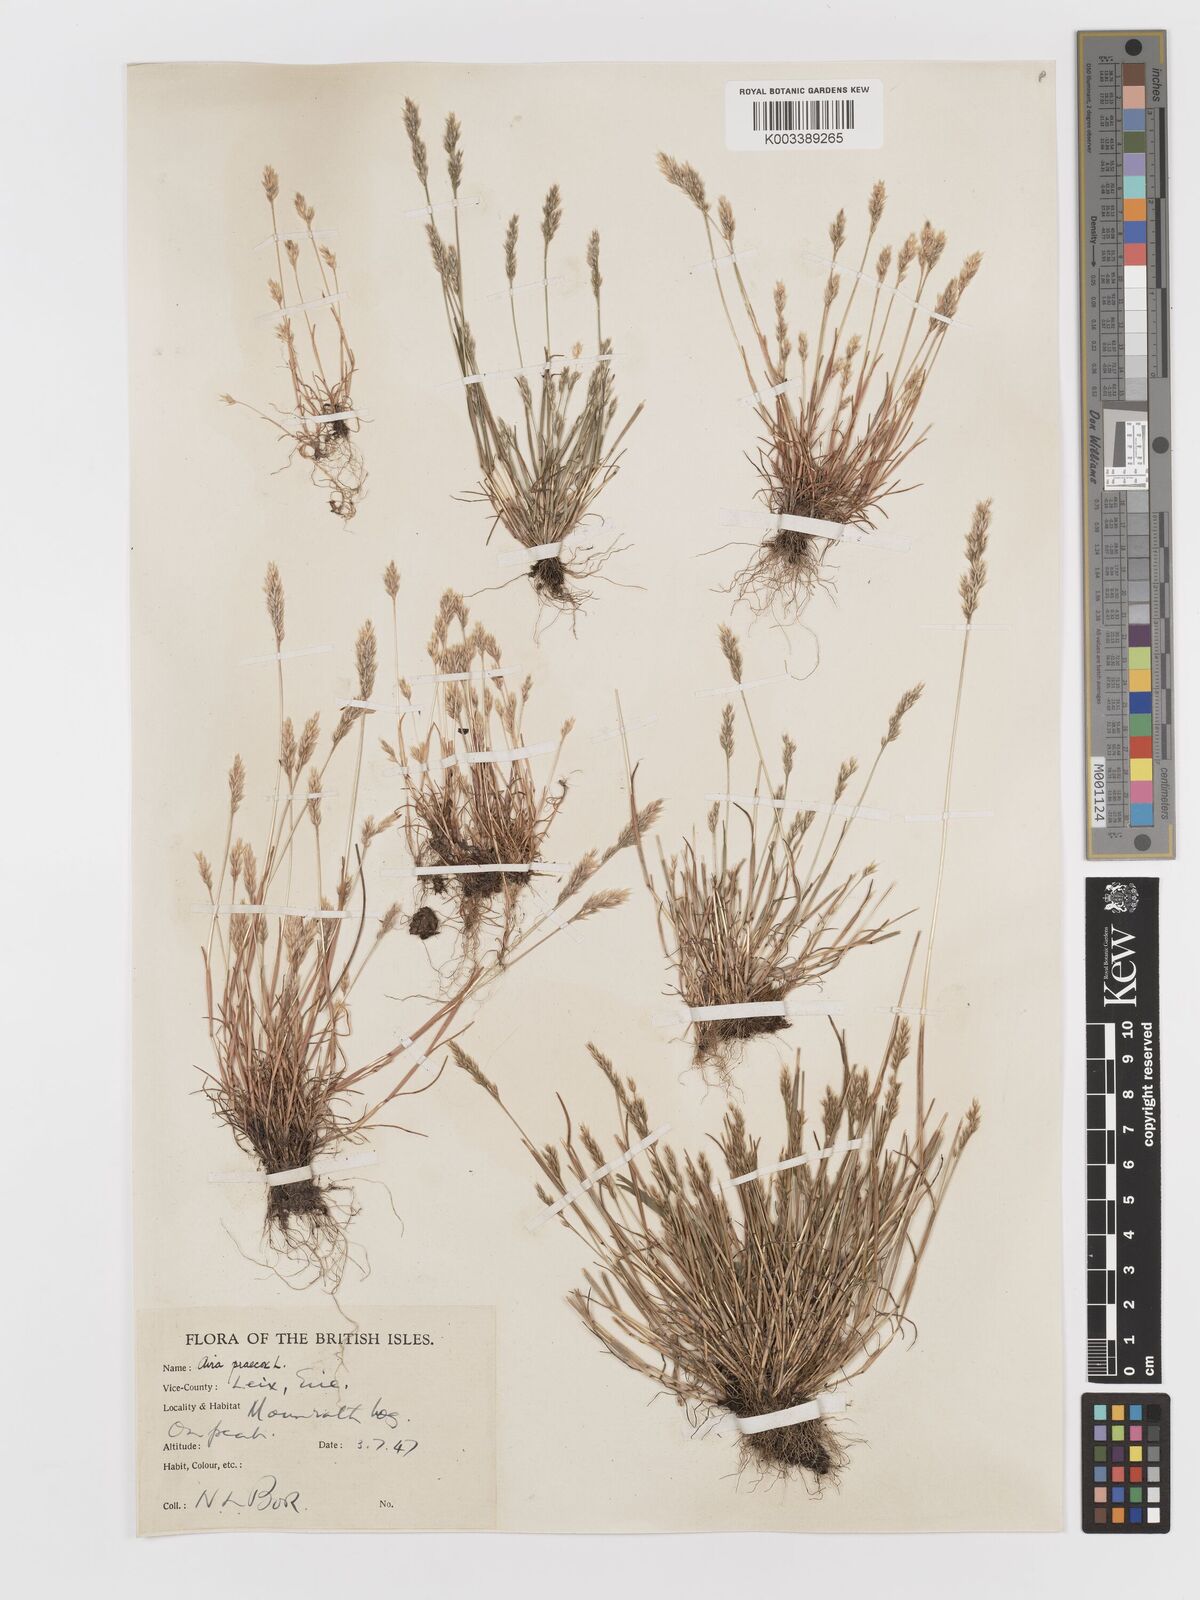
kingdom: Plantae
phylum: Tracheophyta
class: Liliopsida
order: Poales
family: Poaceae
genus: Aira
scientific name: Aira praecox
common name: Early hair-grass
